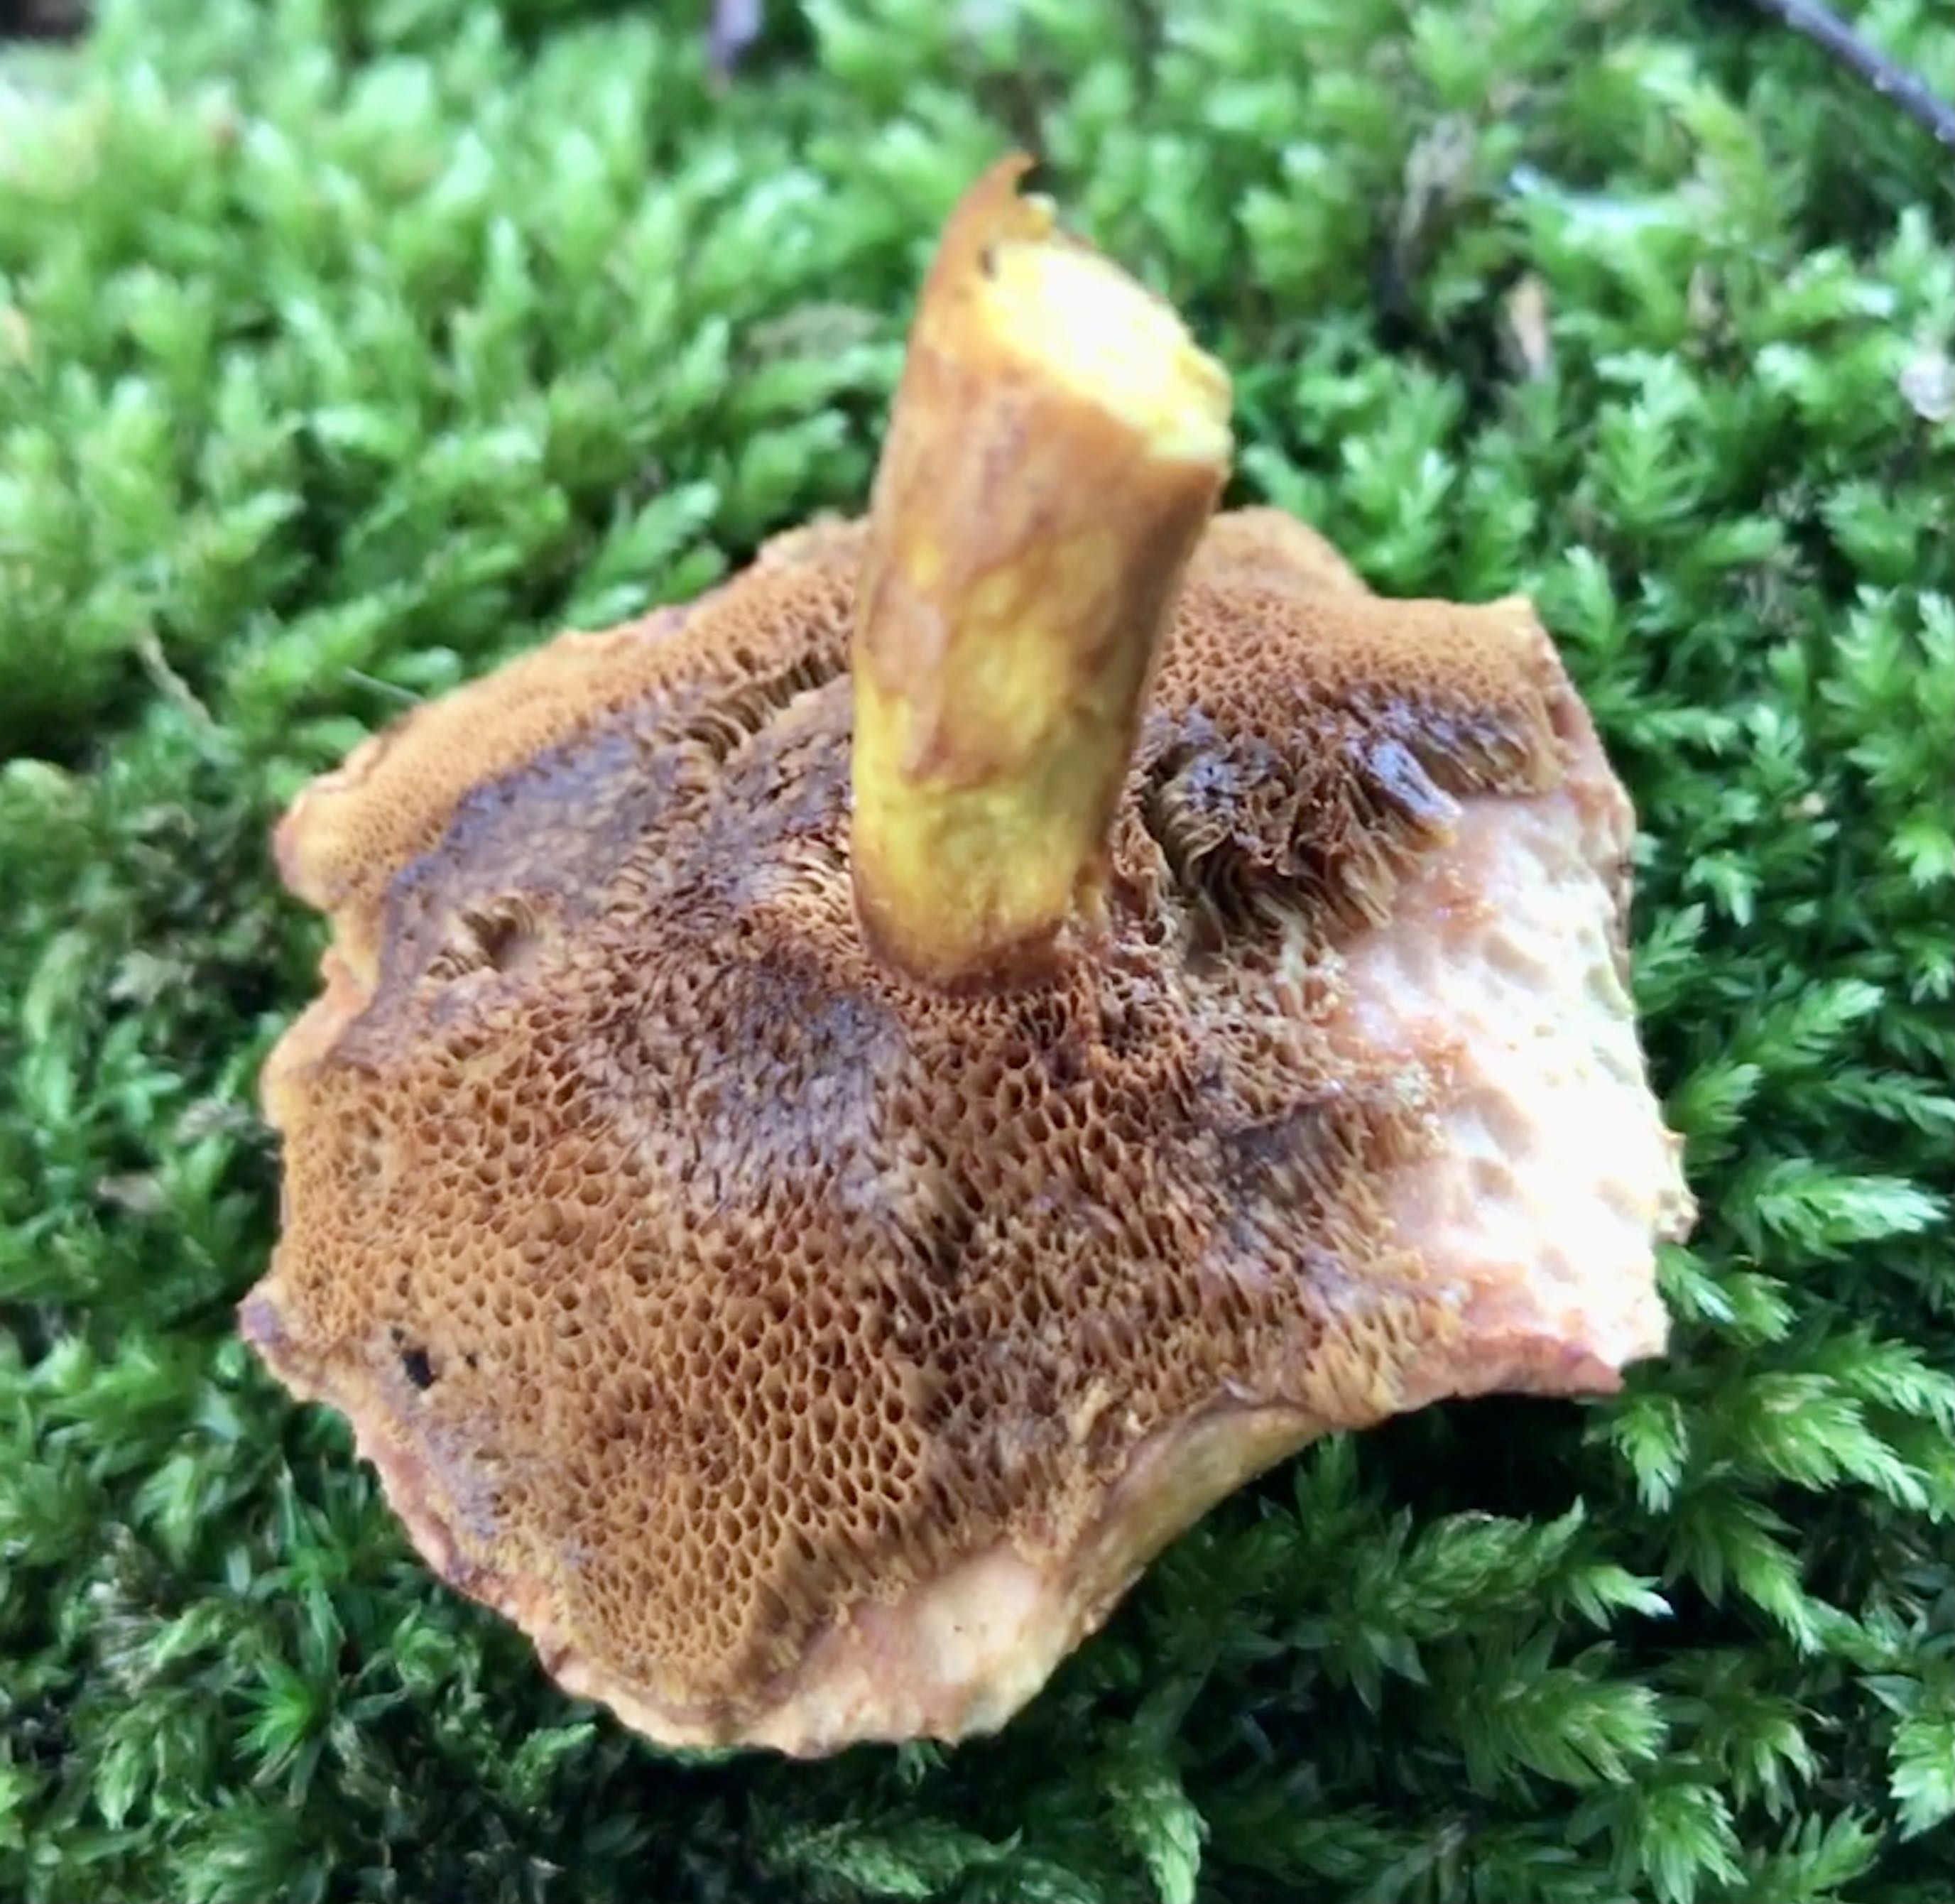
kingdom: Fungi
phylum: Basidiomycota
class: Agaricomycetes
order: Boletales
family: Boletaceae
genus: Chalciporus
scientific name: Chalciporus piperatus
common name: peberrørhat
